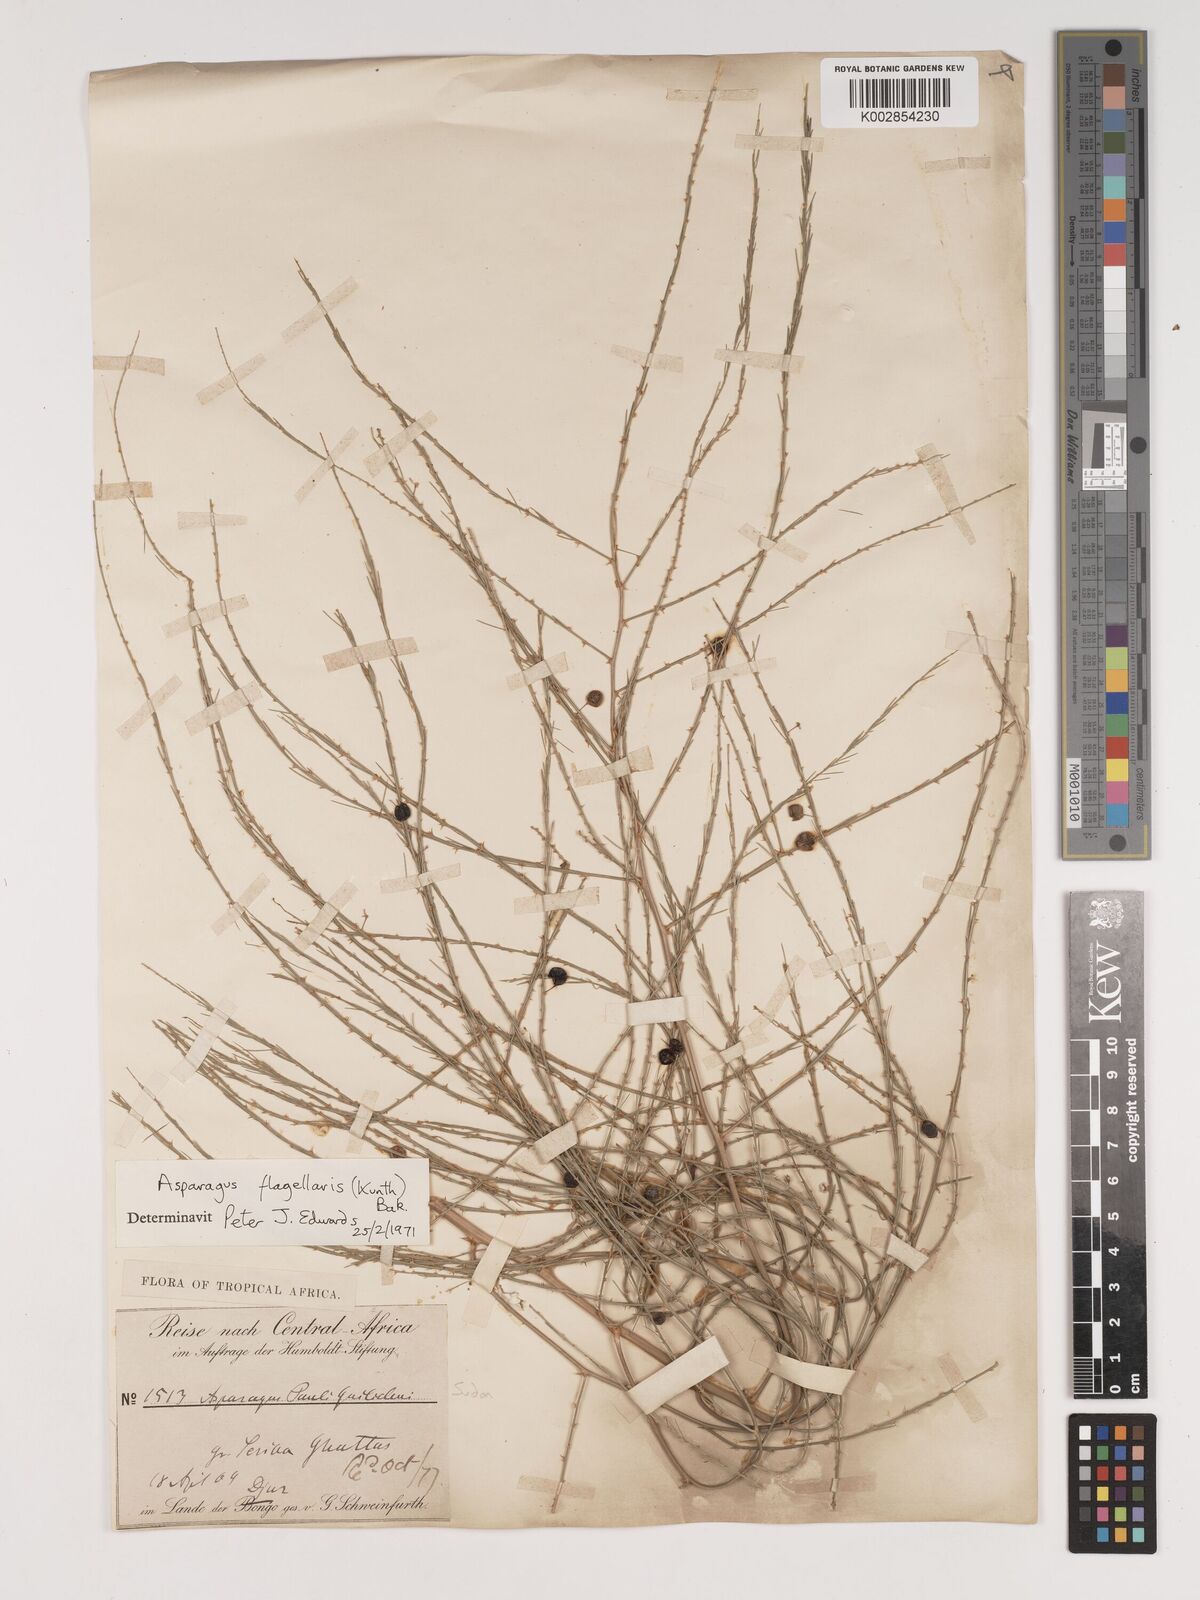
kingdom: Plantae
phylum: Tracheophyta
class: Liliopsida
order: Asparagales
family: Asparagaceae
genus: Asparagus
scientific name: Asparagus flagellaris
